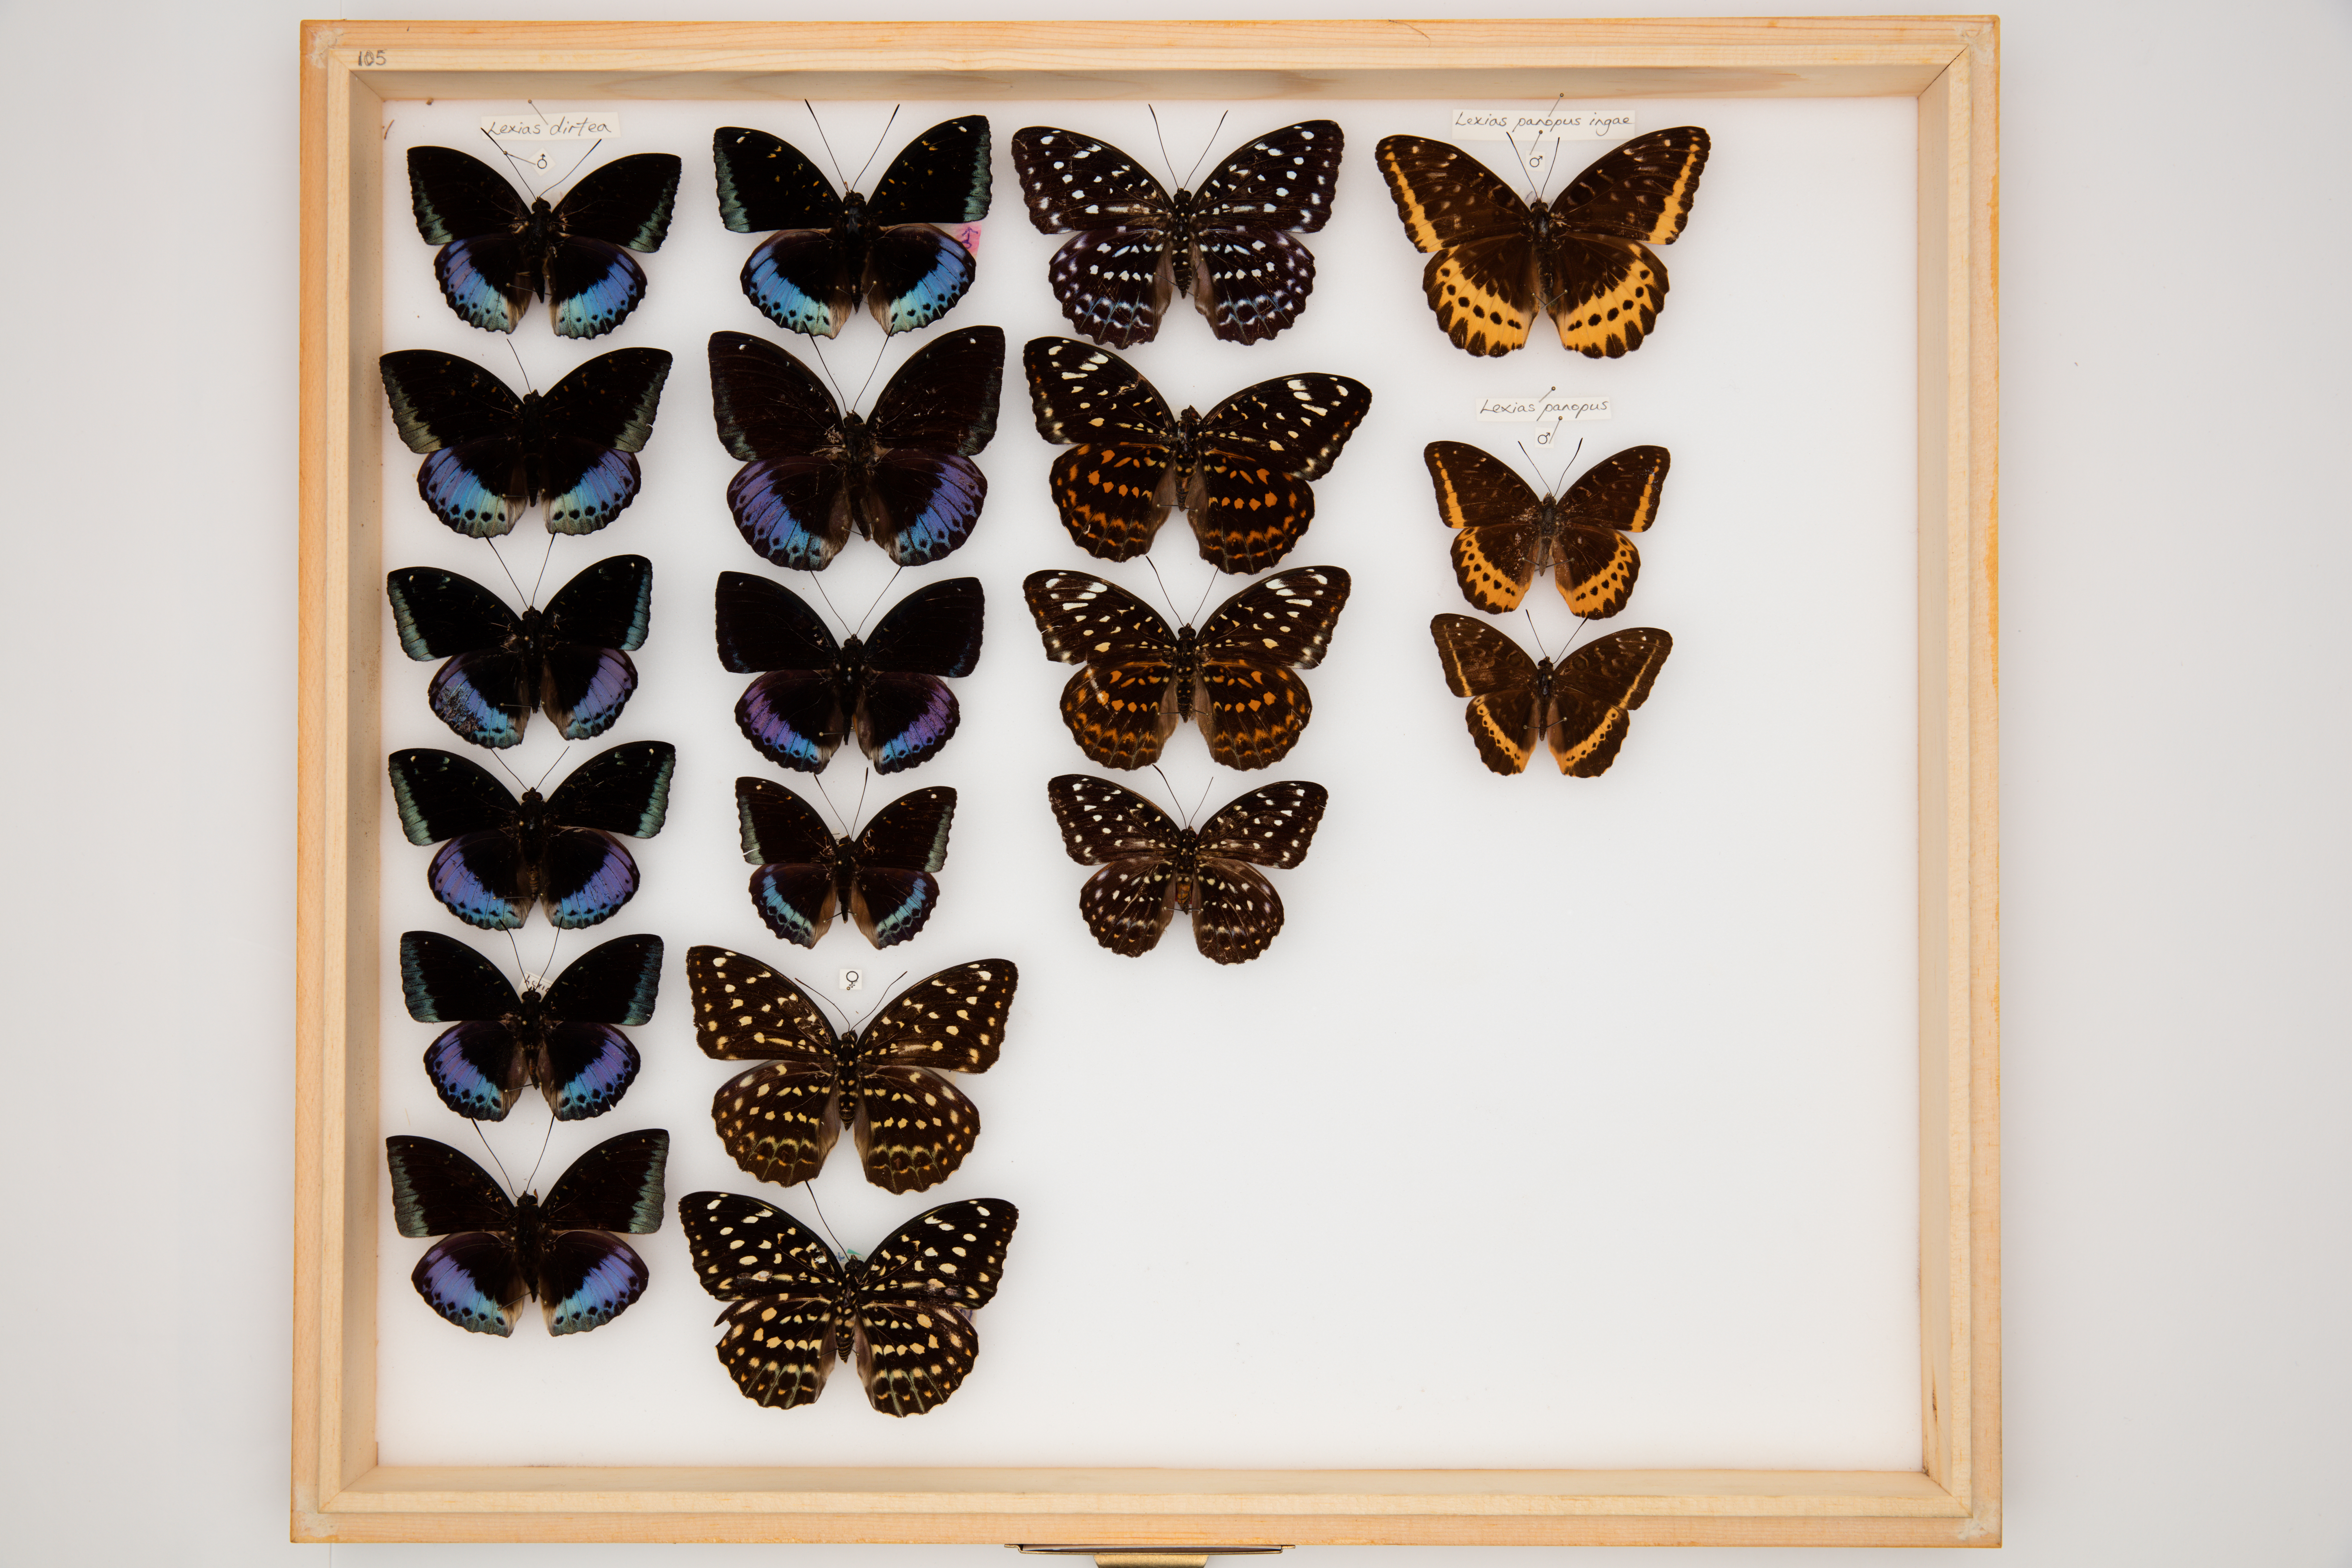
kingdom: Animalia
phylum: Arthropoda
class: Insecta
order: Lepidoptera
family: Nymphalidae
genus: Lexias
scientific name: Lexias dirtea
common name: Black-tipped archduke
